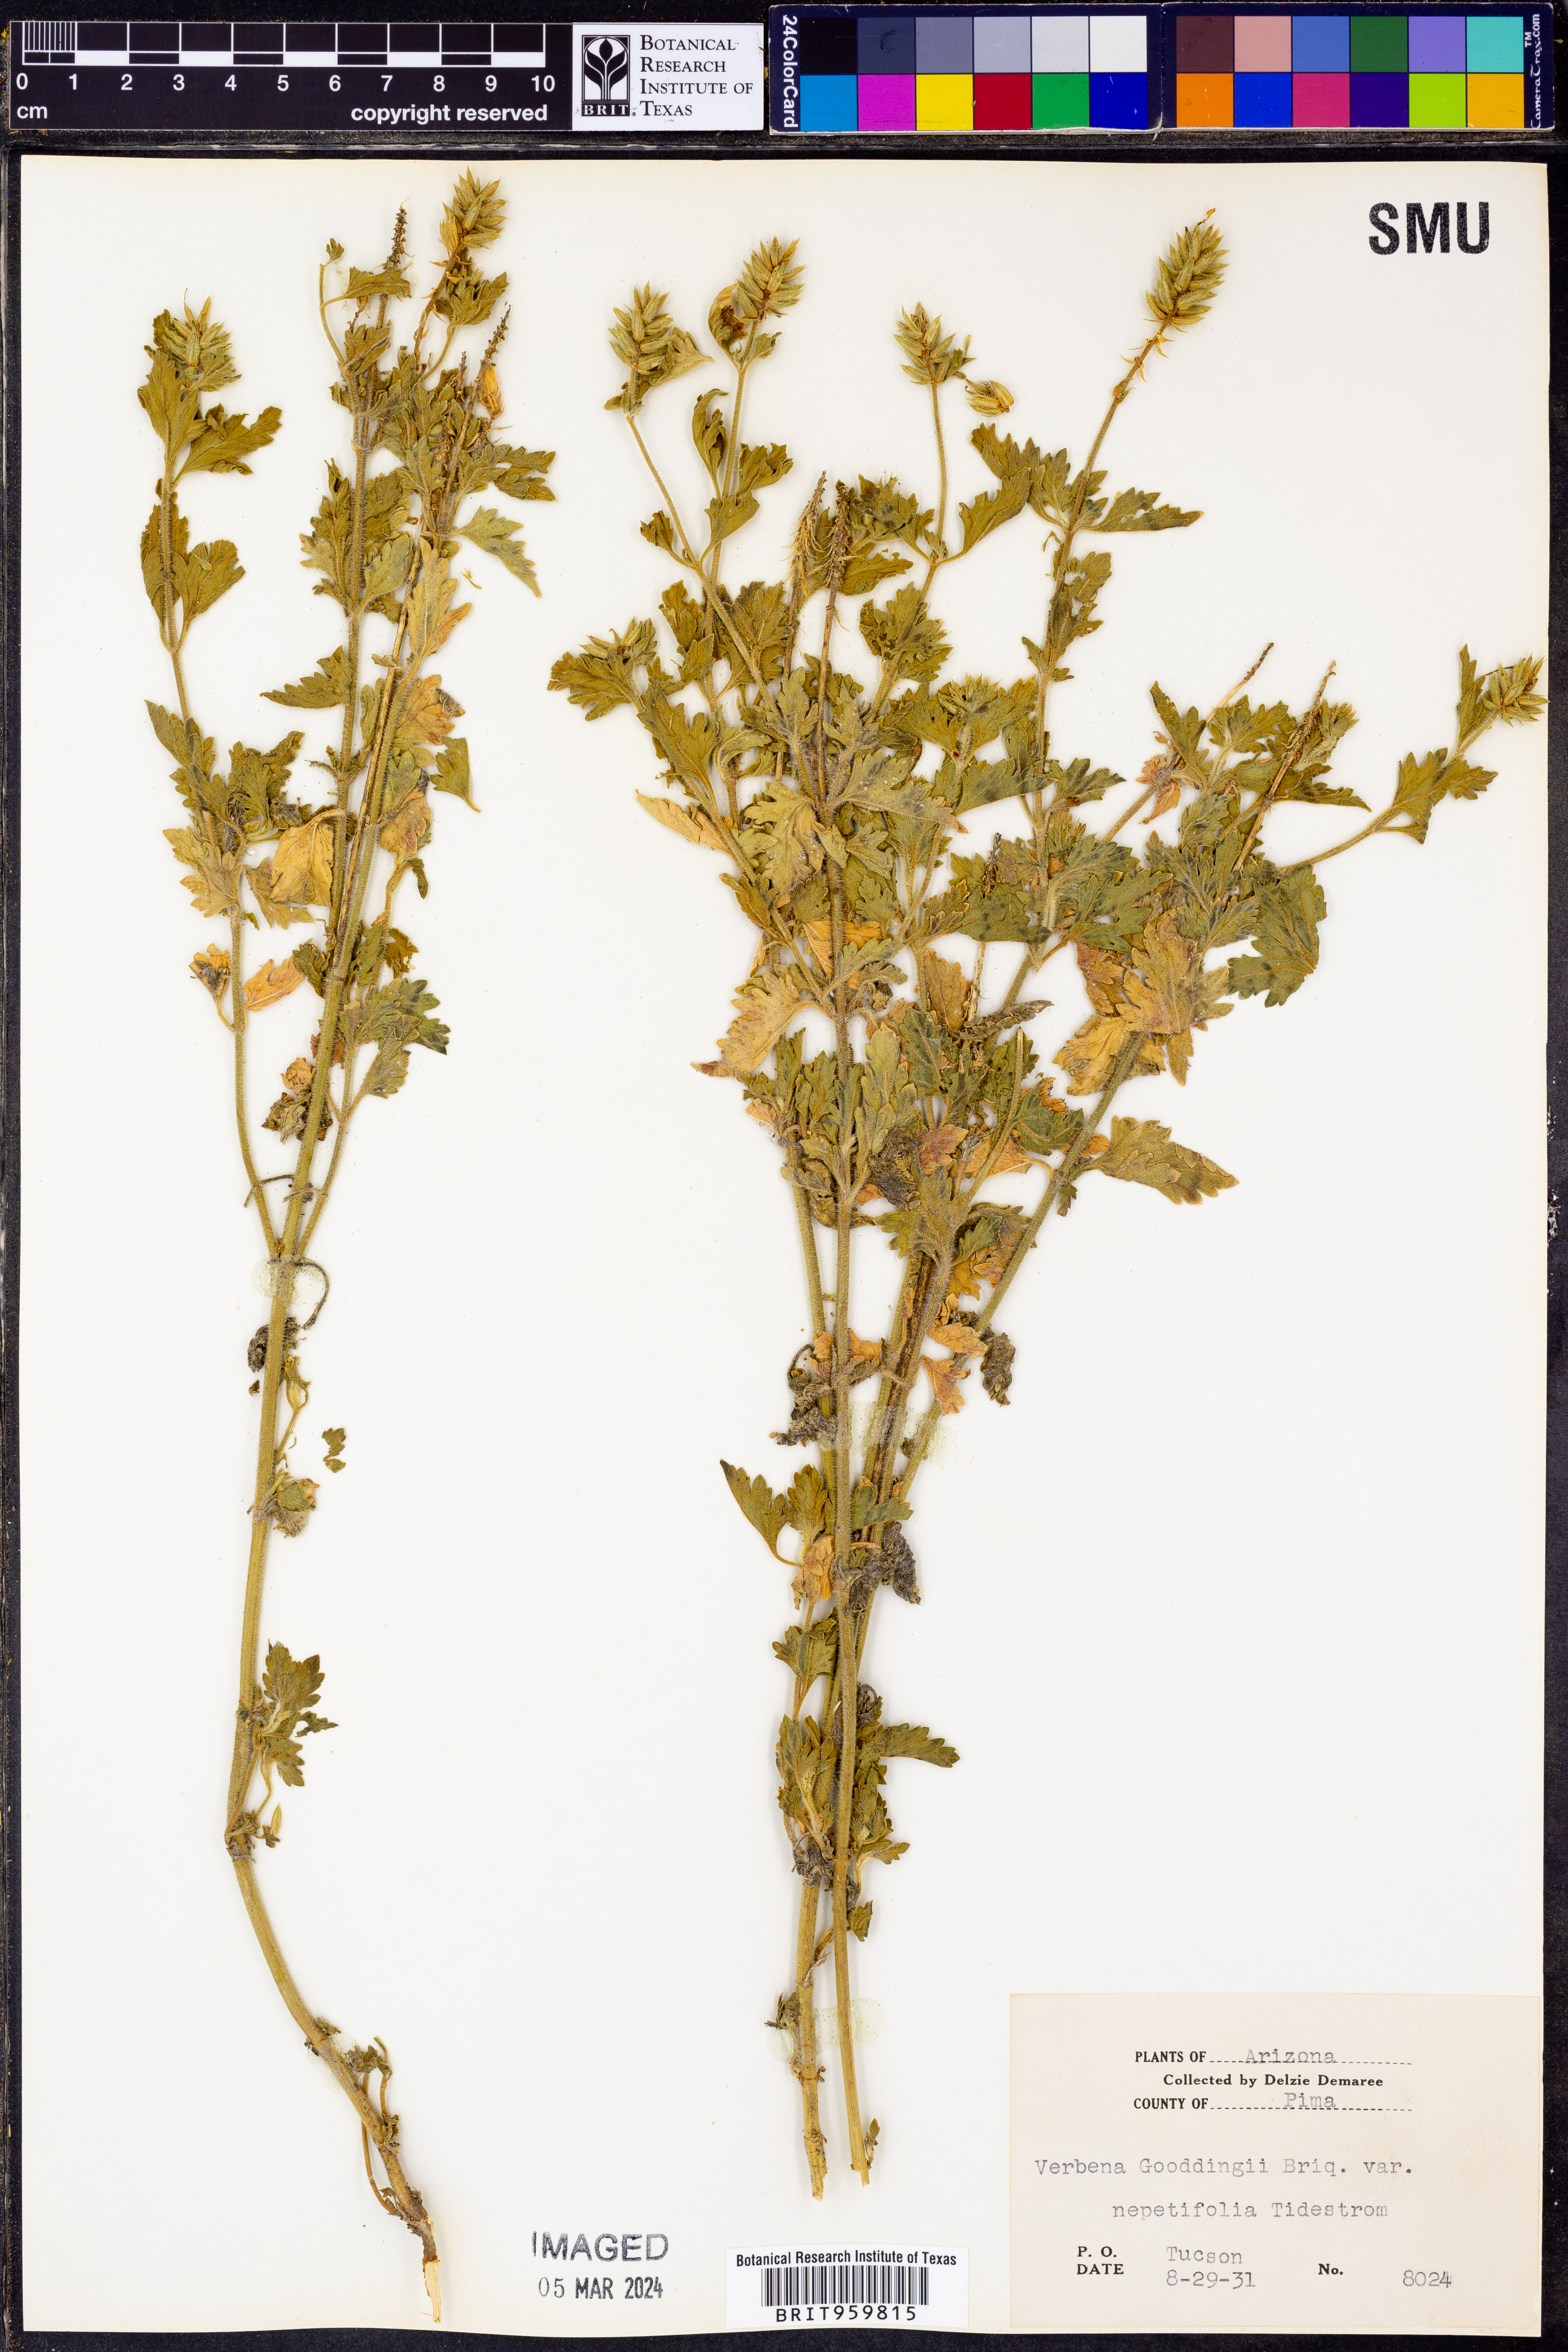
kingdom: Plantae
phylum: Tracheophyta
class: Magnoliopsida
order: Lamiales
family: Verbenaceae
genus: Verbena
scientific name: Verbena gooddingii
